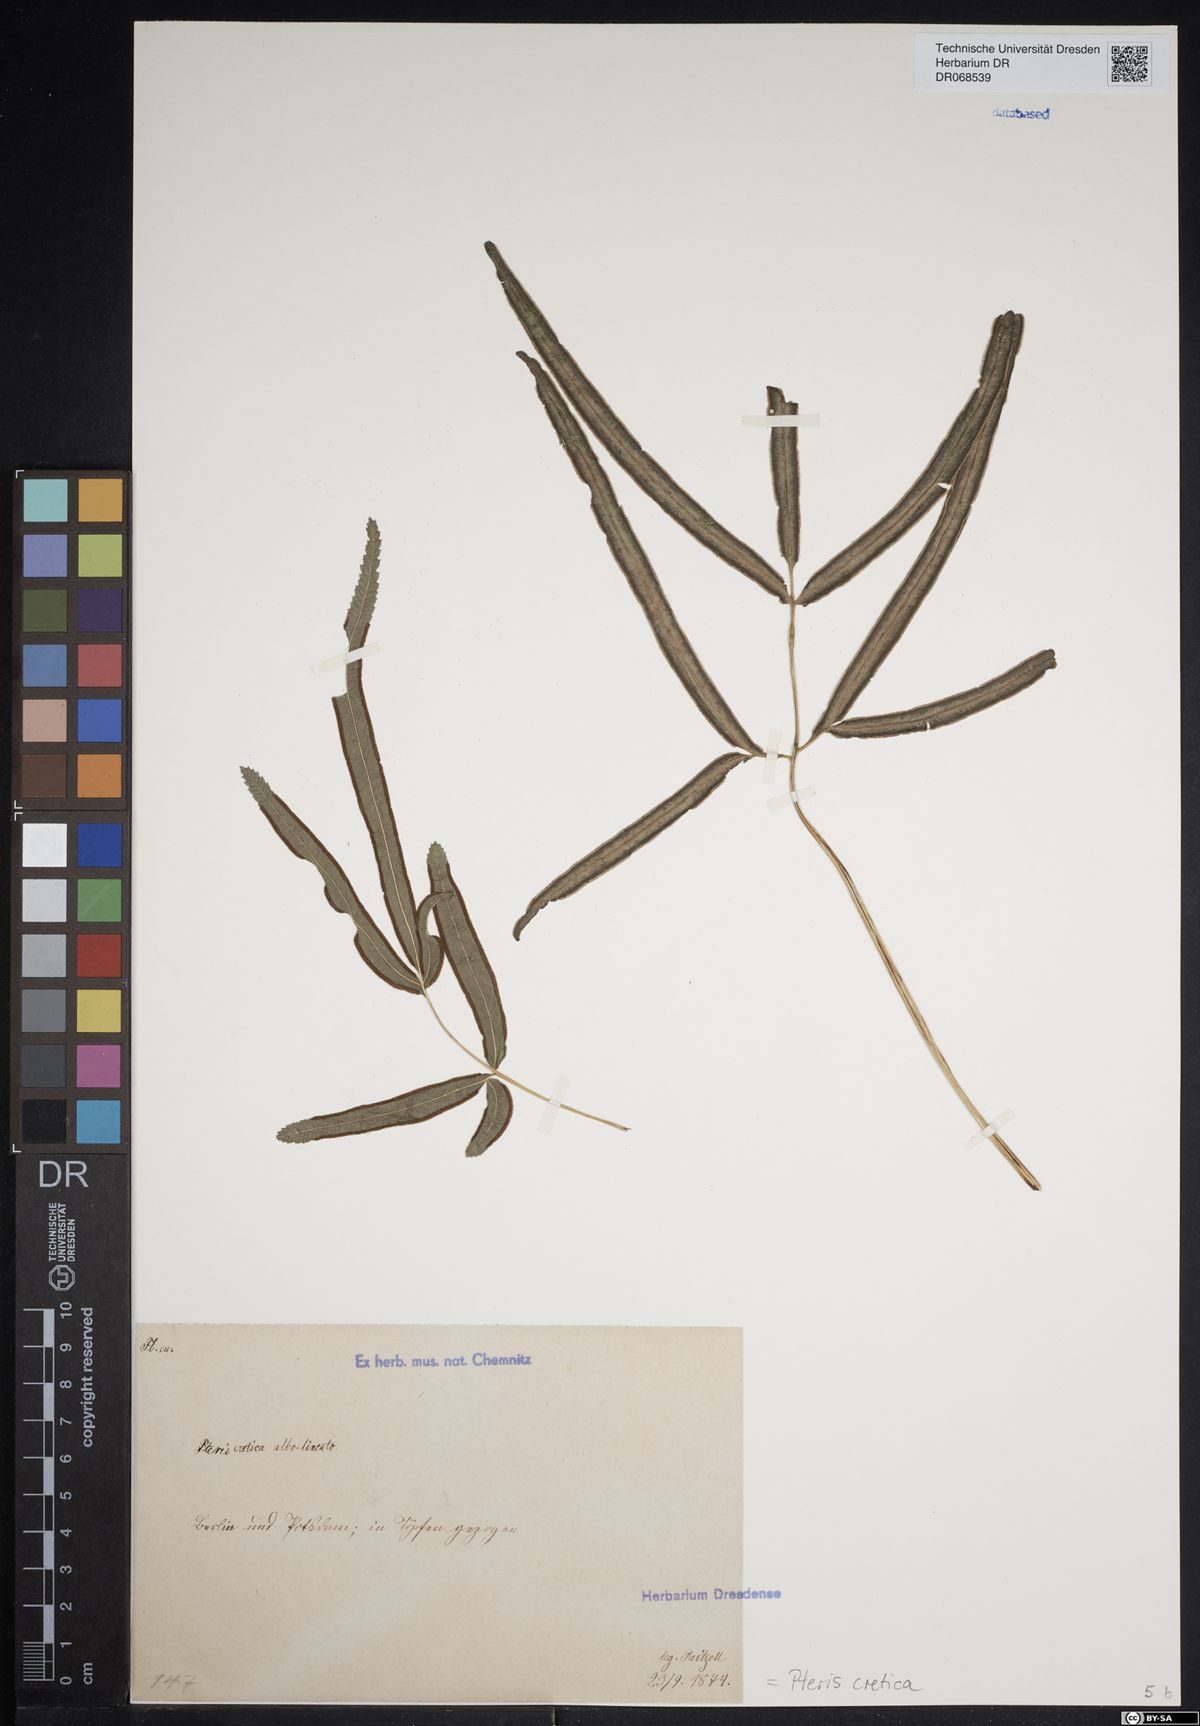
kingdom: Plantae
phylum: Tracheophyta
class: Polypodiopsida
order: Polypodiales
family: Pteridaceae
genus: Pteris
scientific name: Pteris cretica
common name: Ribbon fern
